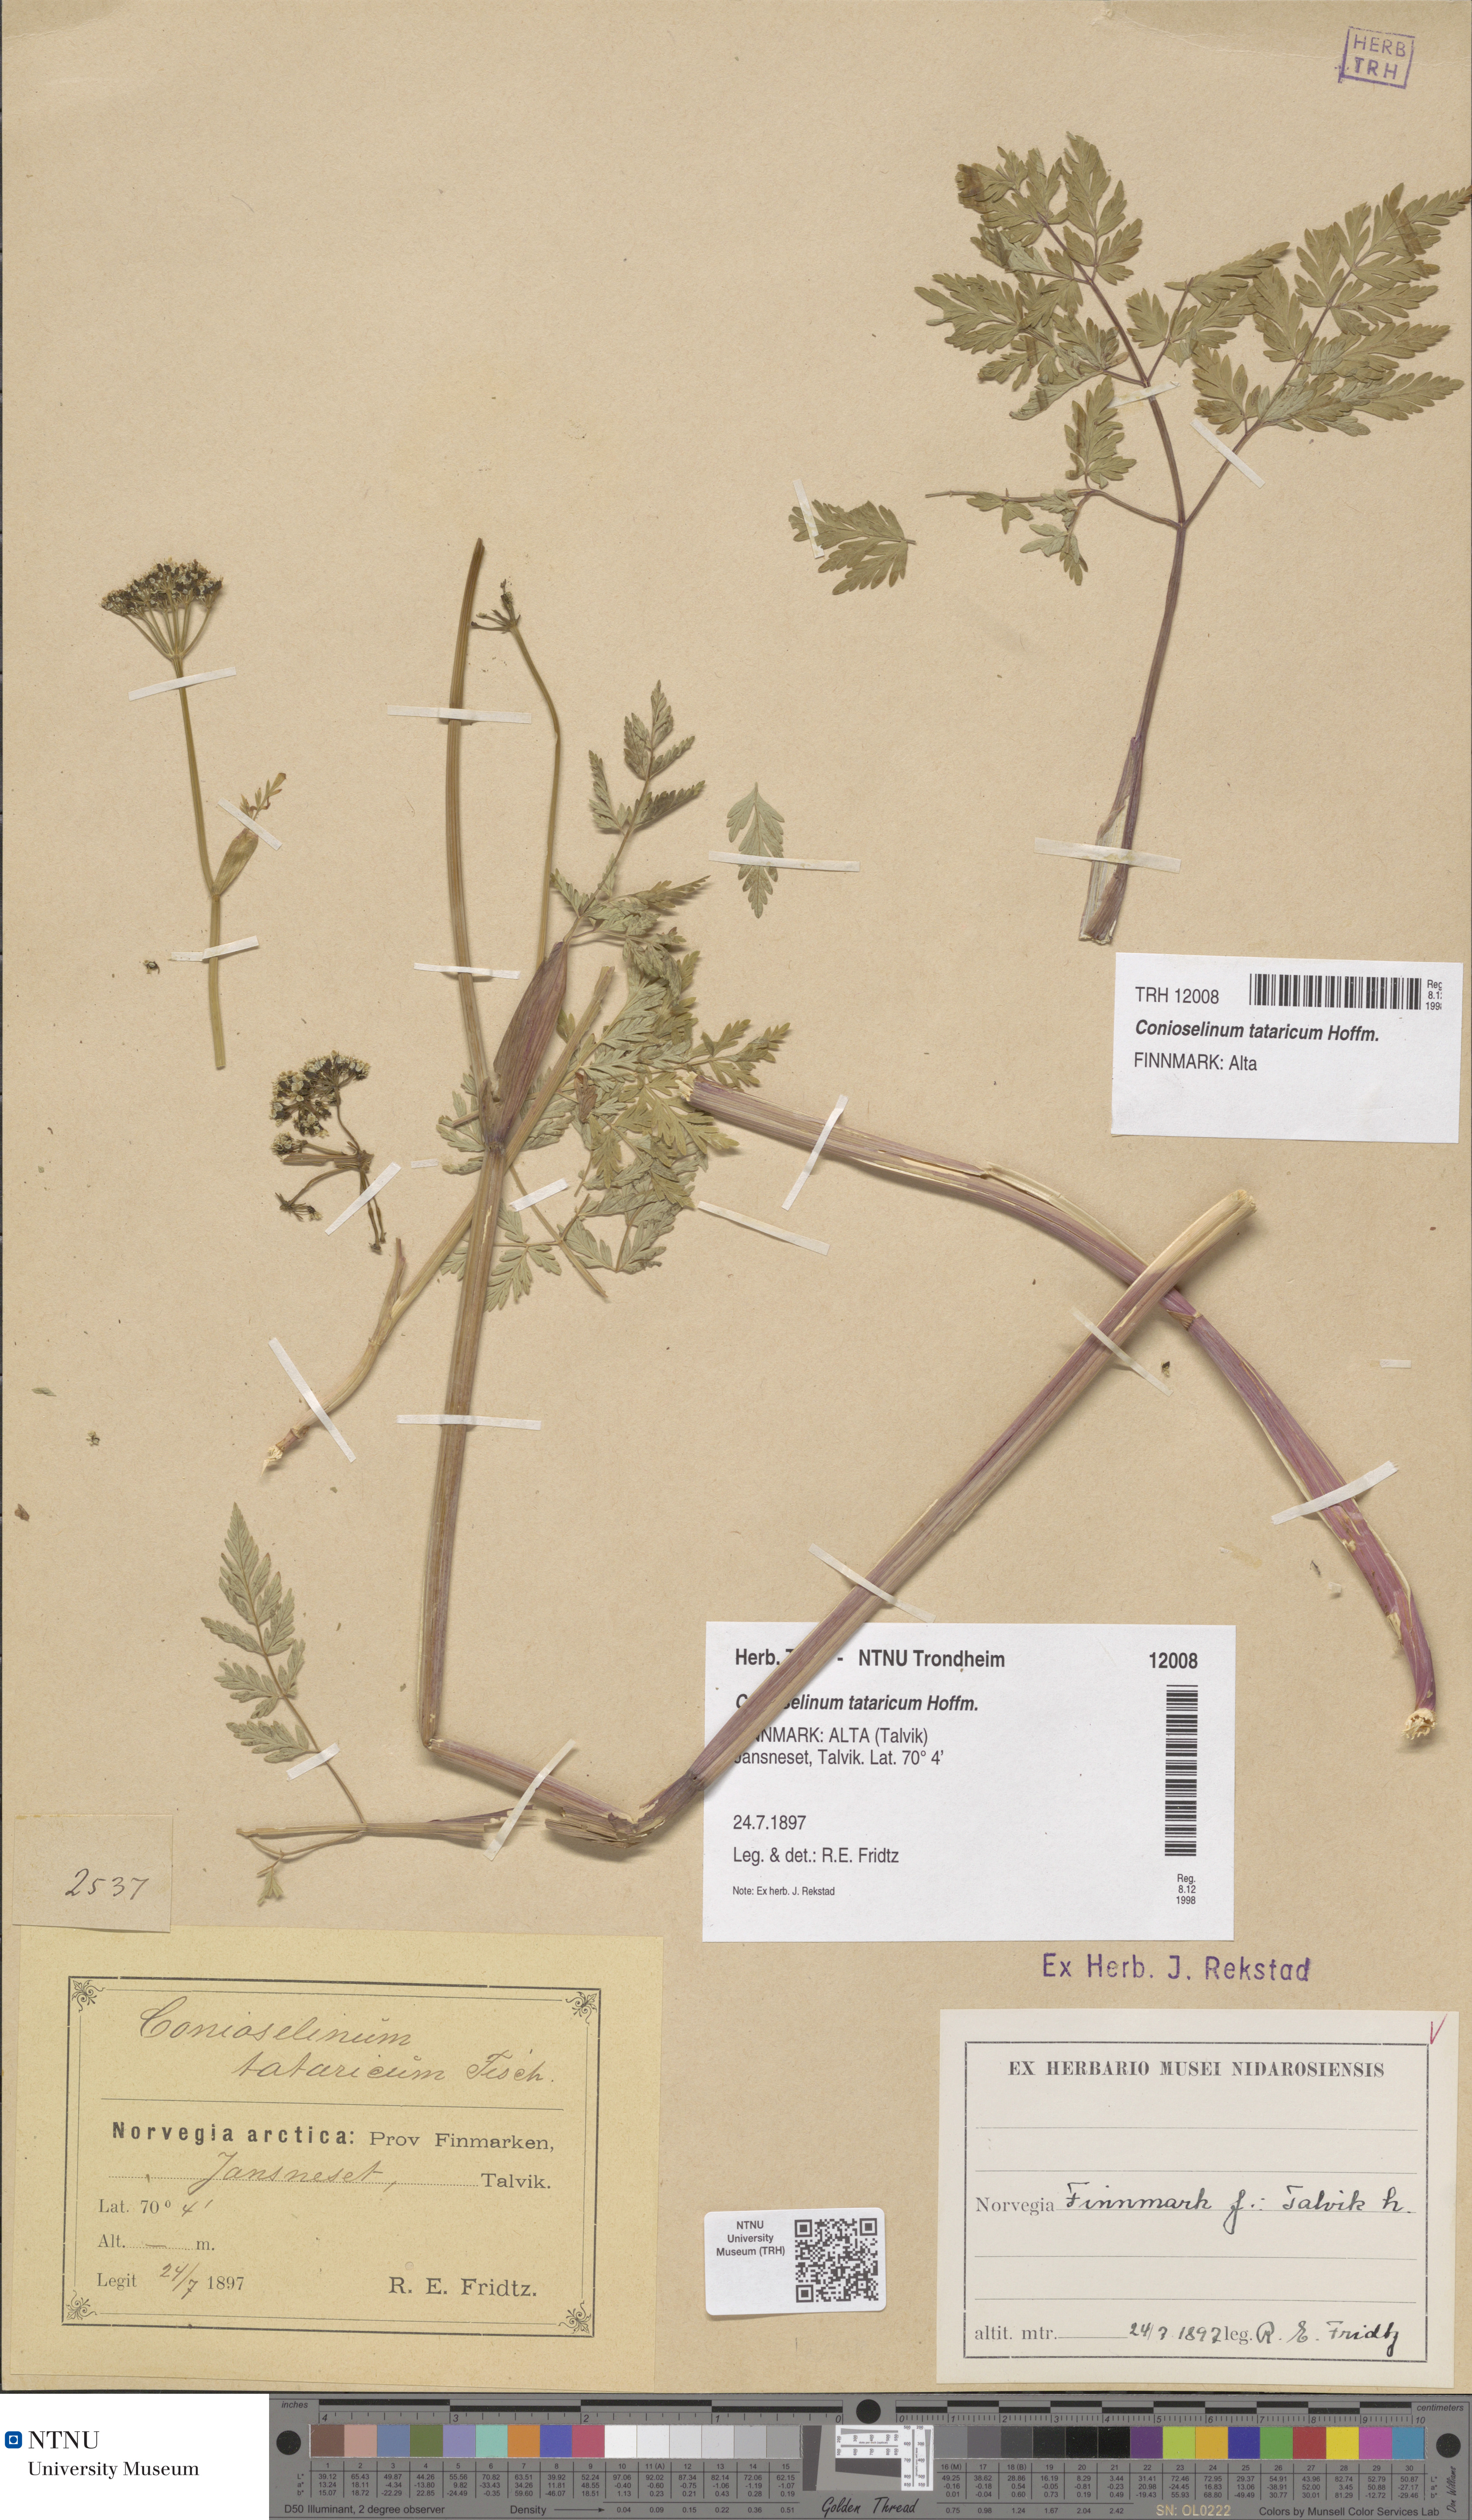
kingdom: Plantae
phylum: Tracheophyta
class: Magnoliopsida
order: Apiales
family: Apiaceae
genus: Seseli
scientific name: Seseli condensatum
